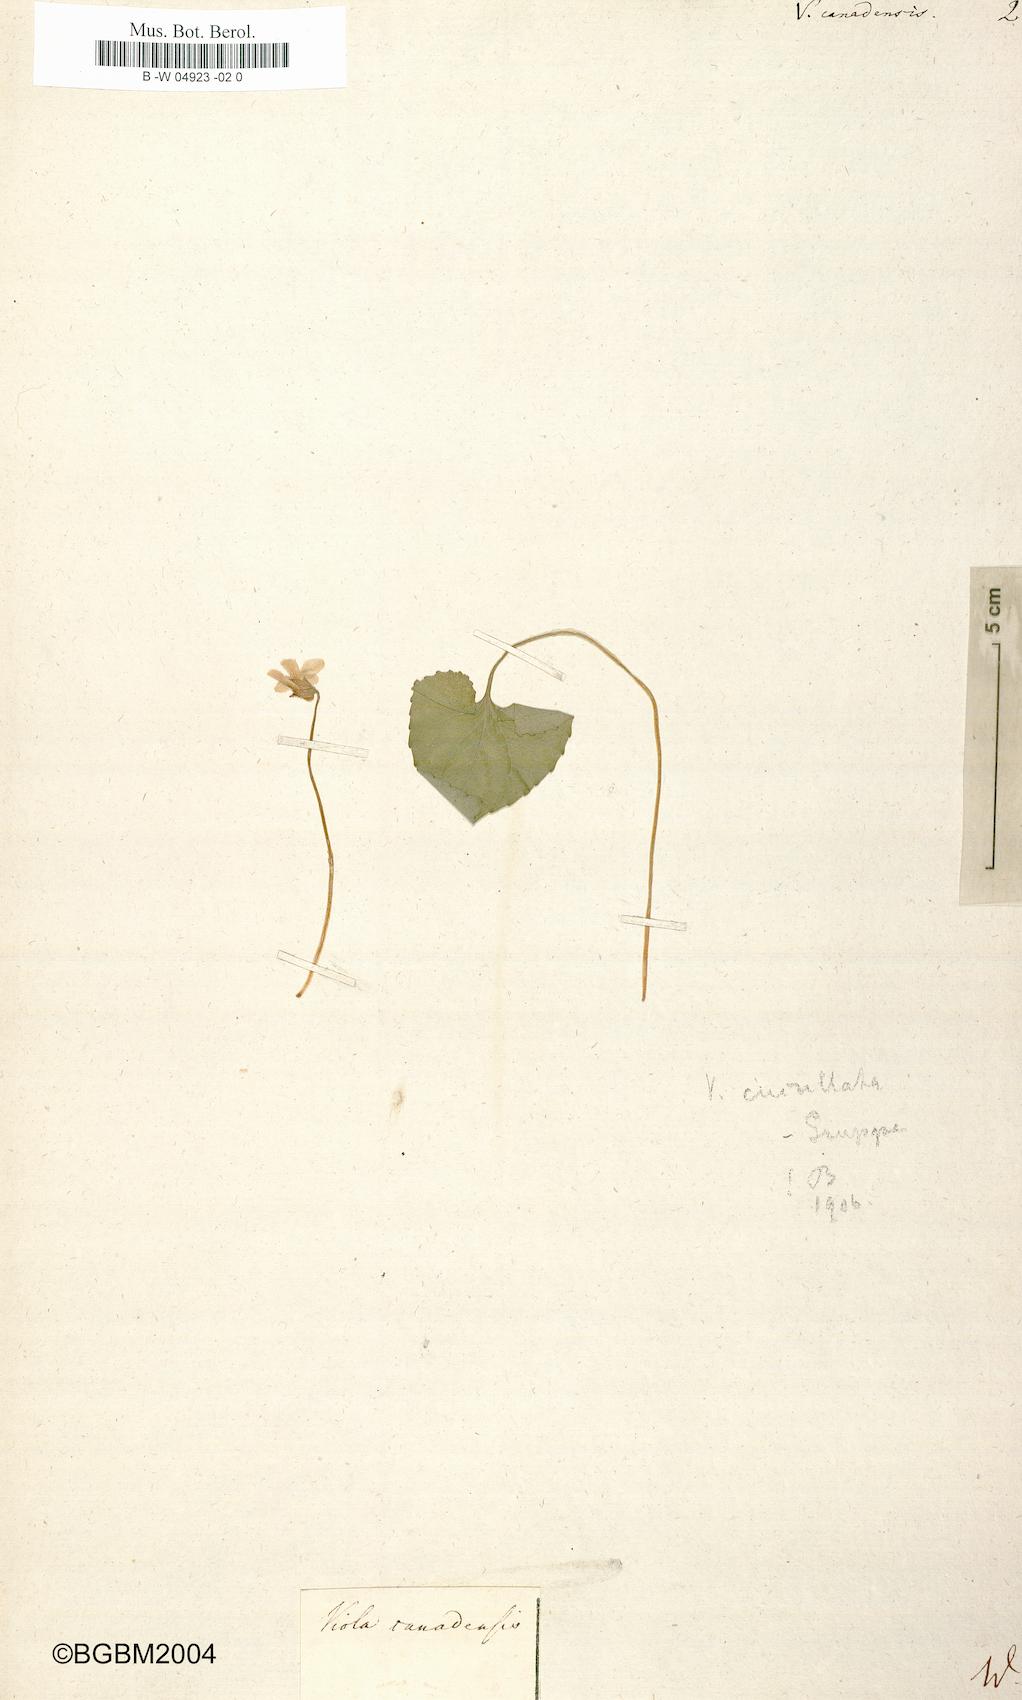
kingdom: Plantae
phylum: Tracheophyta
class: Magnoliopsida
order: Malpighiales
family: Violaceae
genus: Viola
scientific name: Viola canadensis
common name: Canada violet
